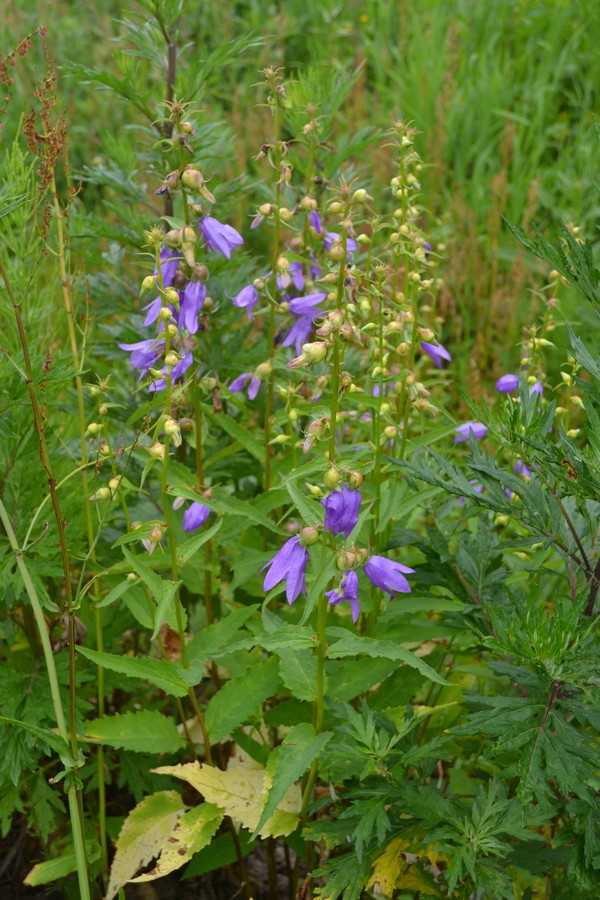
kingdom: Plantae
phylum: Tracheophyta
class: Magnoliopsida
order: Asterales
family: Campanulaceae
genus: Campanula
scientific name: Campanula rapunculoides
